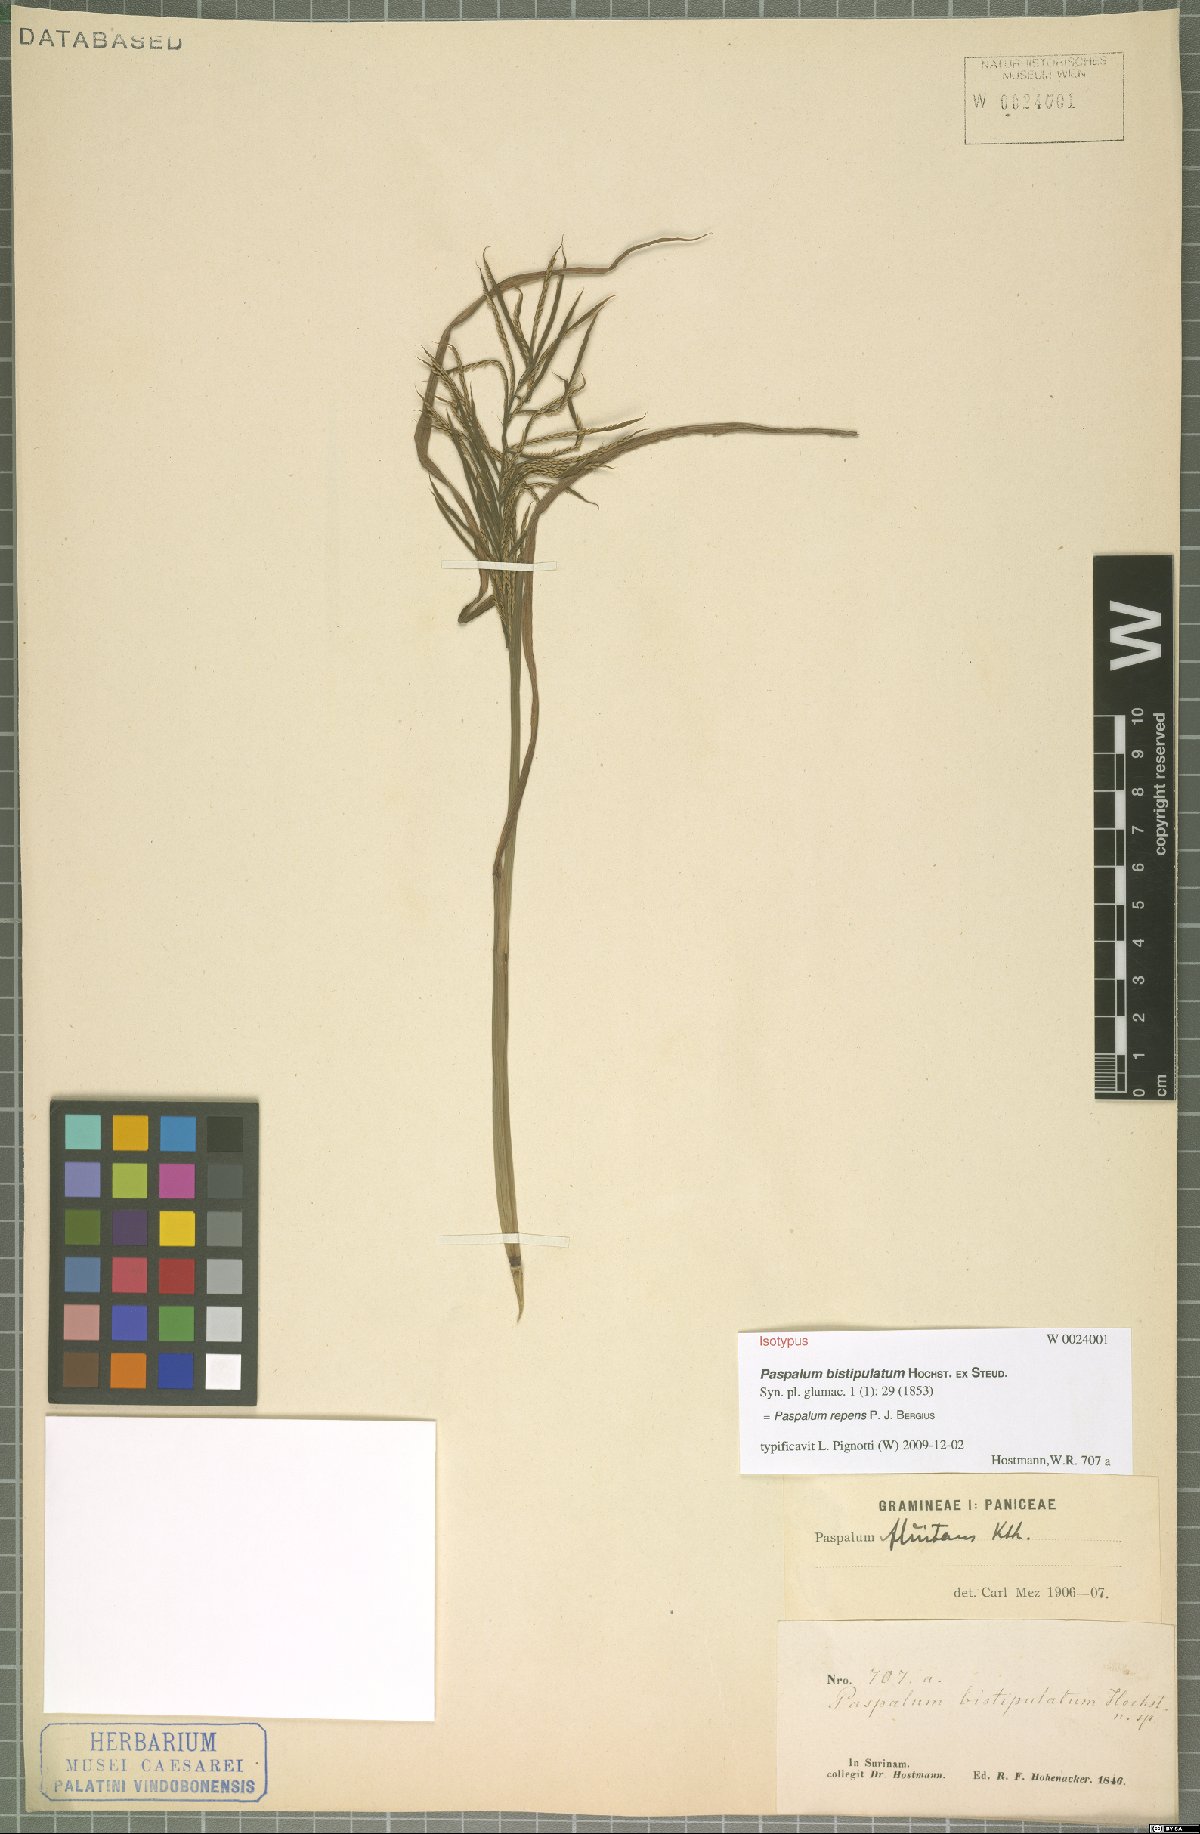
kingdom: Plantae
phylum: Tracheophyta
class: Liliopsida
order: Poales
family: Poaceae
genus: Paspalum
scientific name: Paspalum repens
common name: Water paspalum
